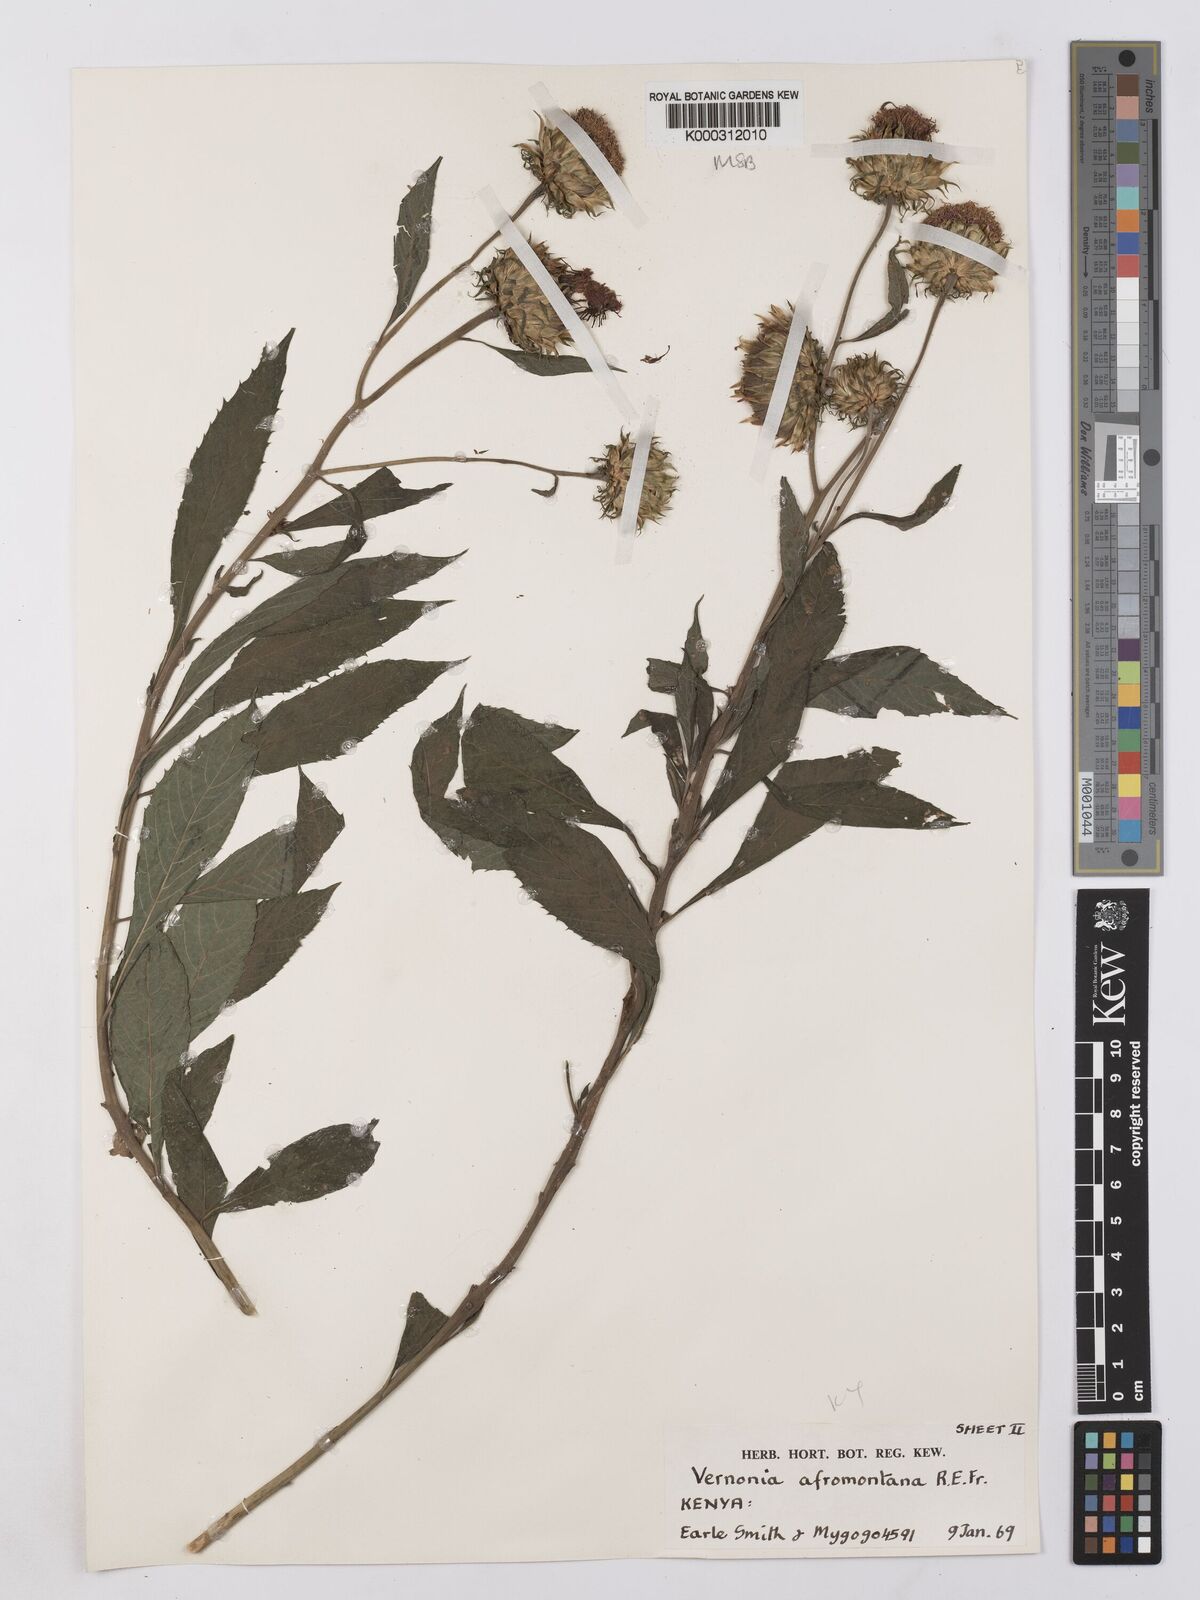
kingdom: Plantae
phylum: Tracheophyta
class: Magnoliopsida
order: Asterales
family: Asteraceae
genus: Vernonia
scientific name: Vernonia galamensis
